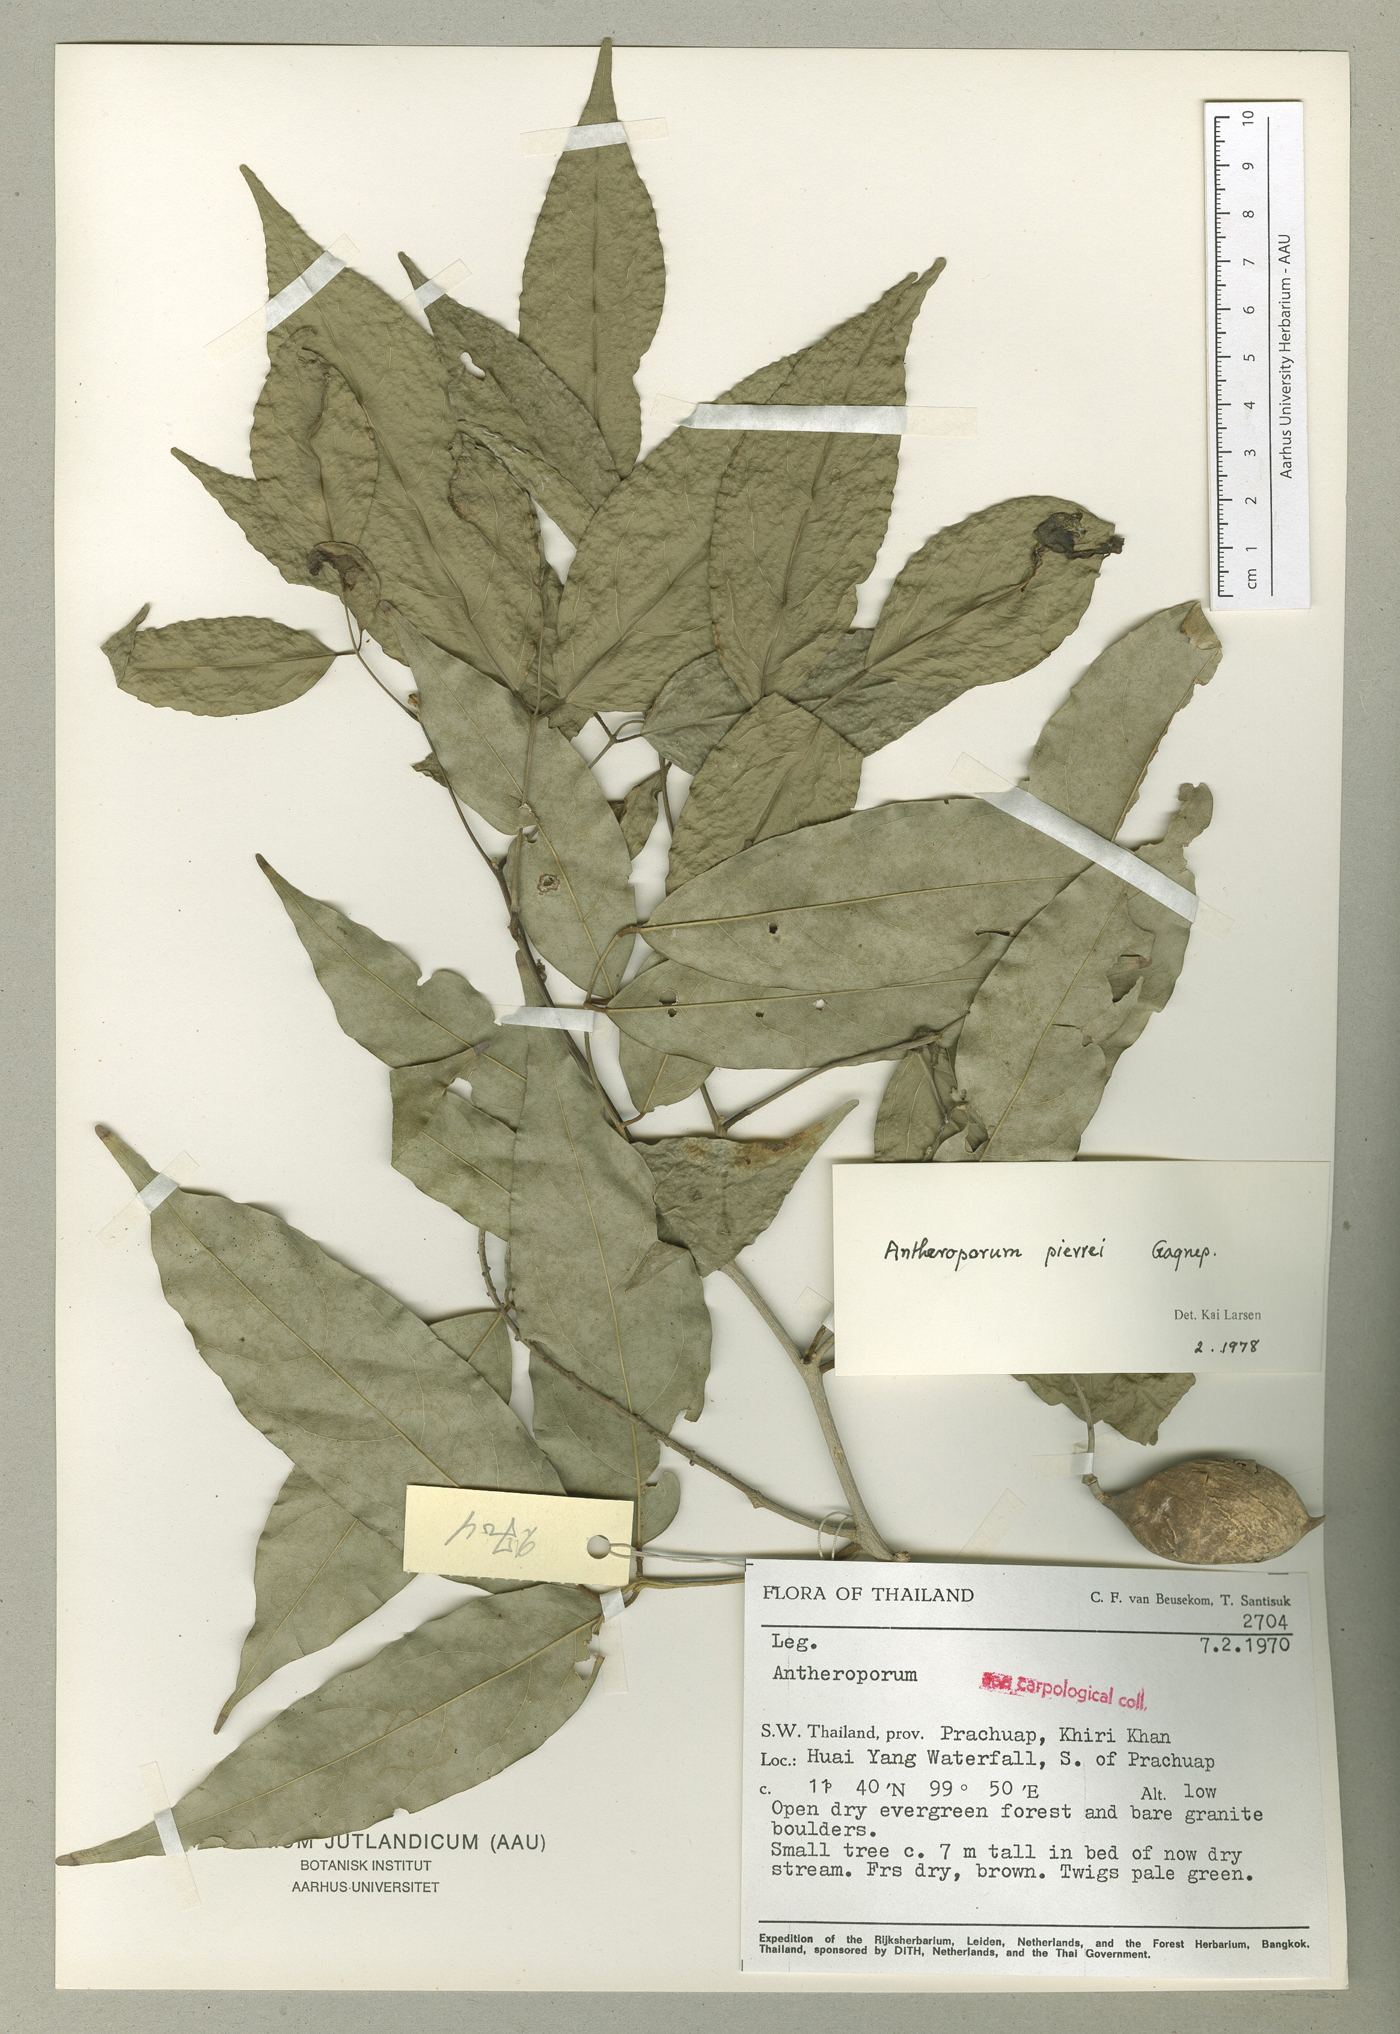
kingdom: Plantae
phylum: Tracheophyta
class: Magnoliopsida
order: Fabales
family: Fabaceae
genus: Antheroporum
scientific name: Antheroporum pierrei
